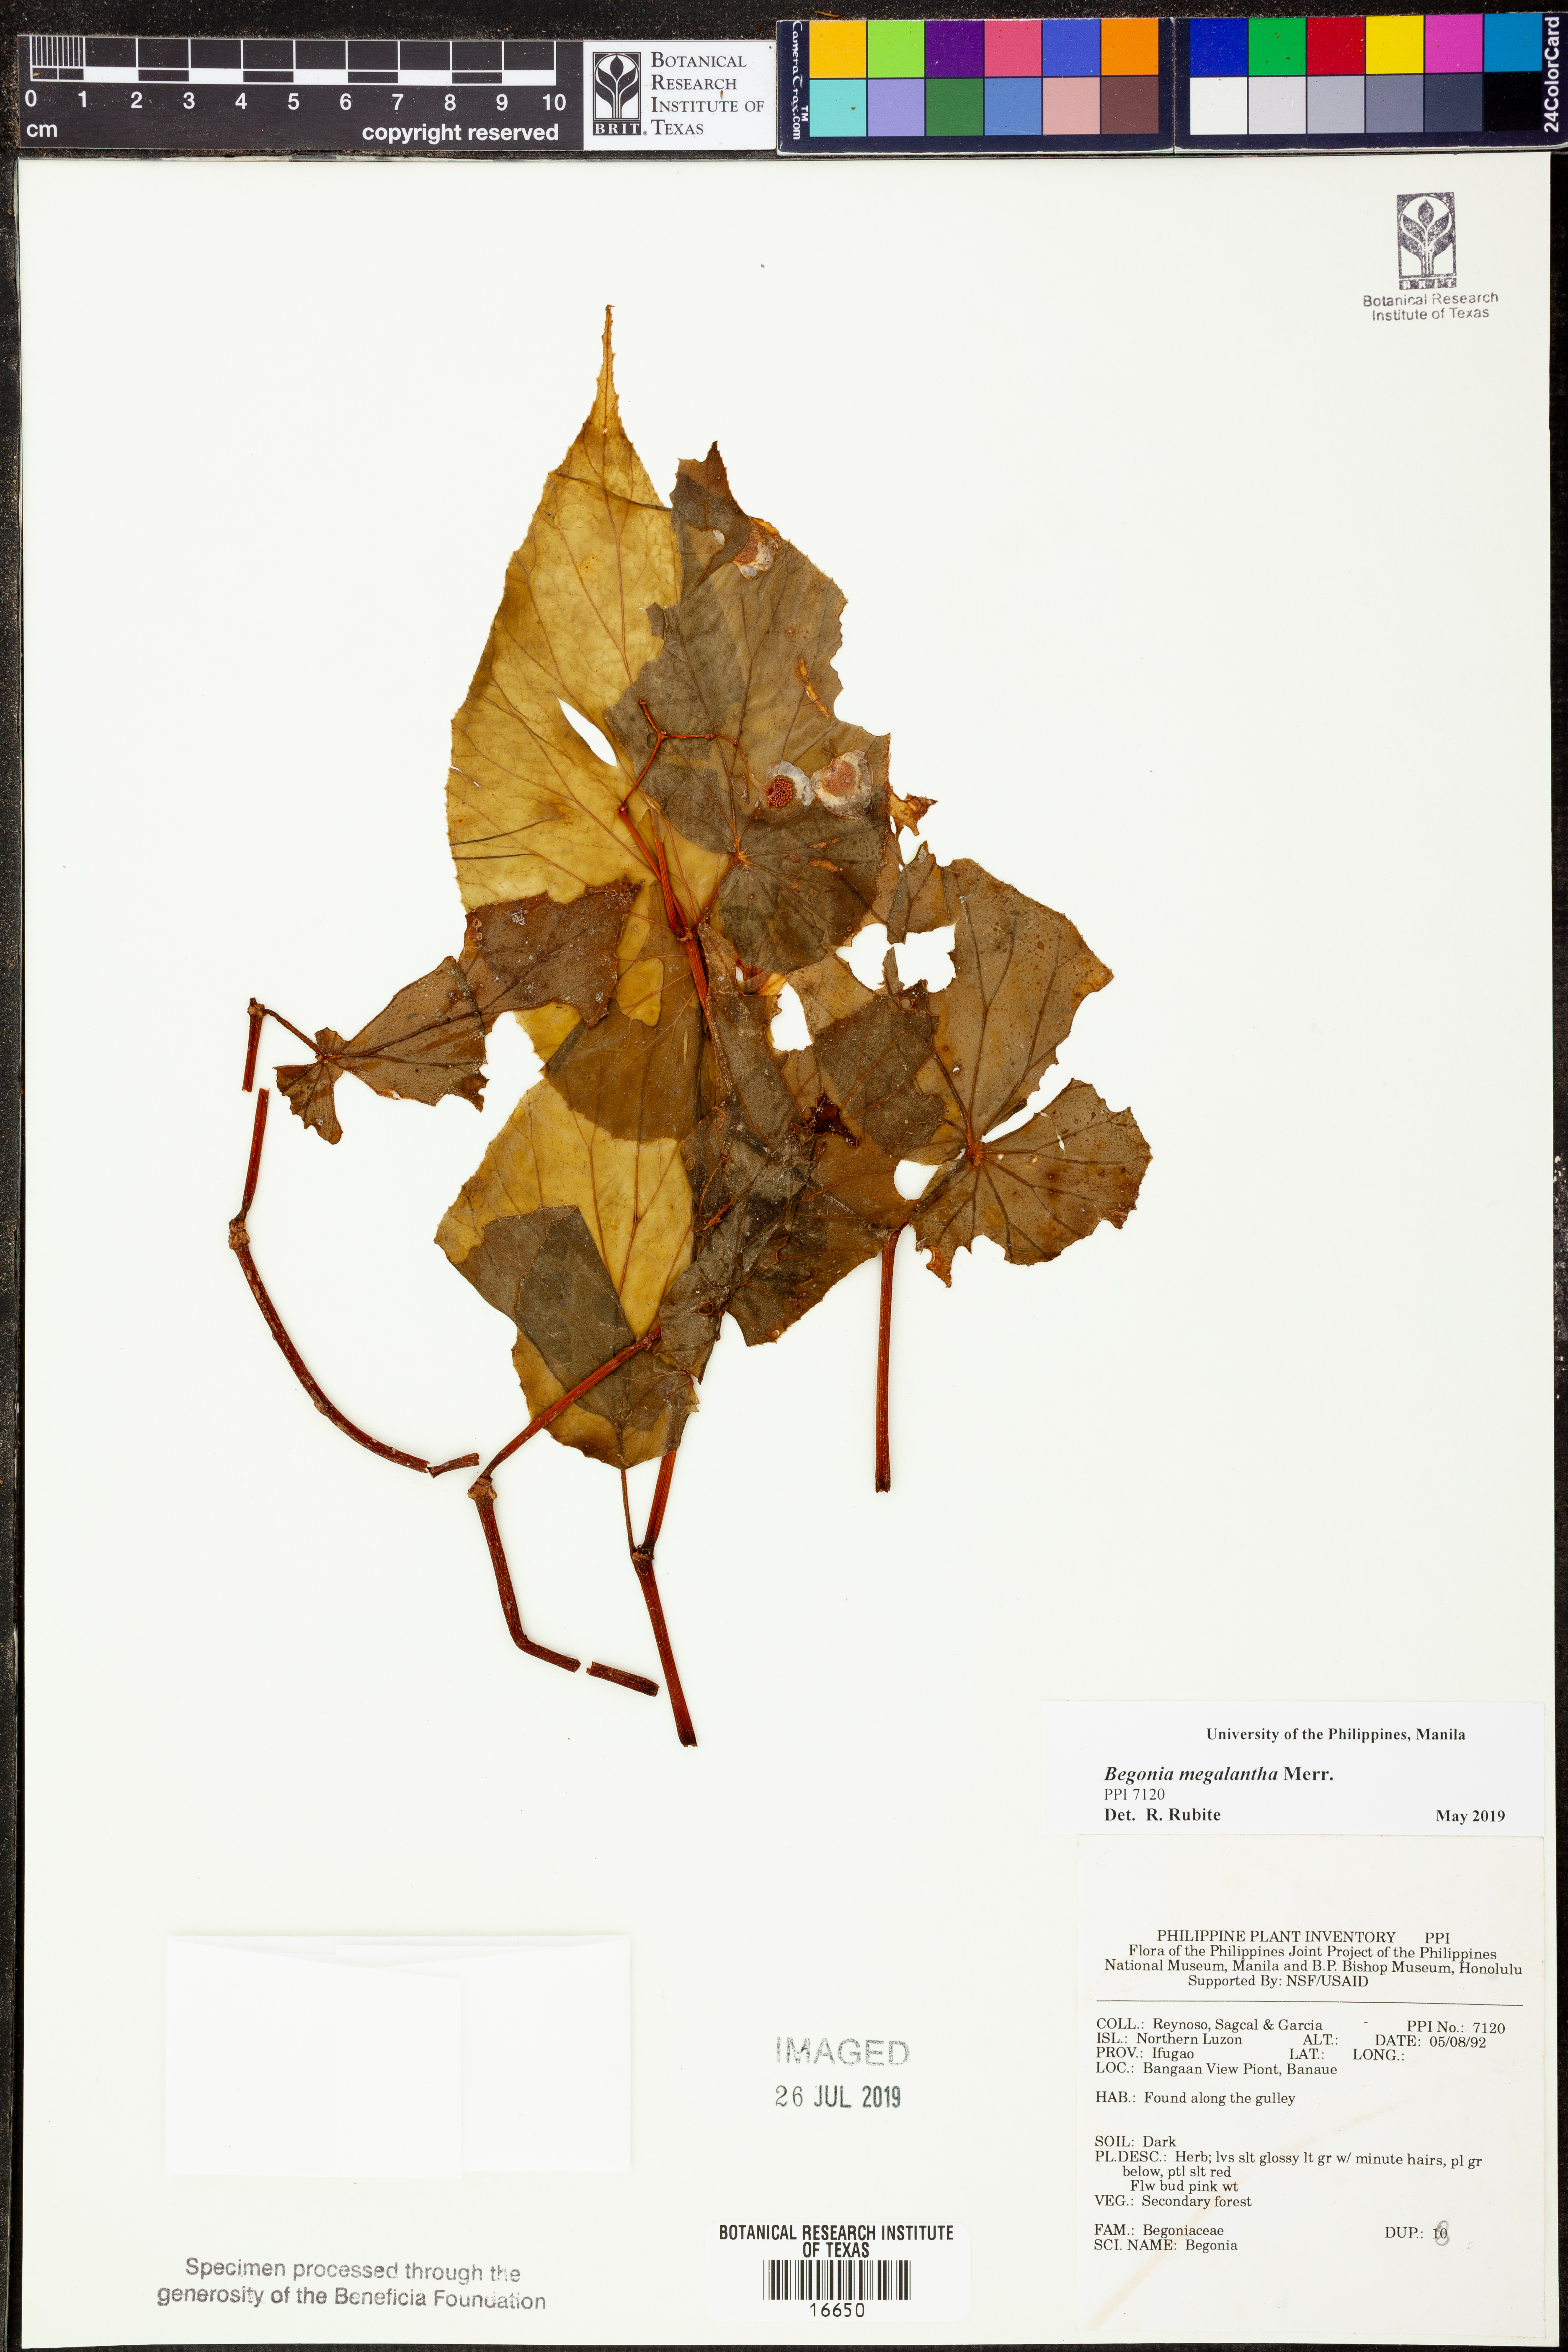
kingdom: Plantae
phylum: Tracheophyta
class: Magnoliopsida
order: Cucurbitales
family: Begoniaceae
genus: Begonia
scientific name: Begonia megalantha
